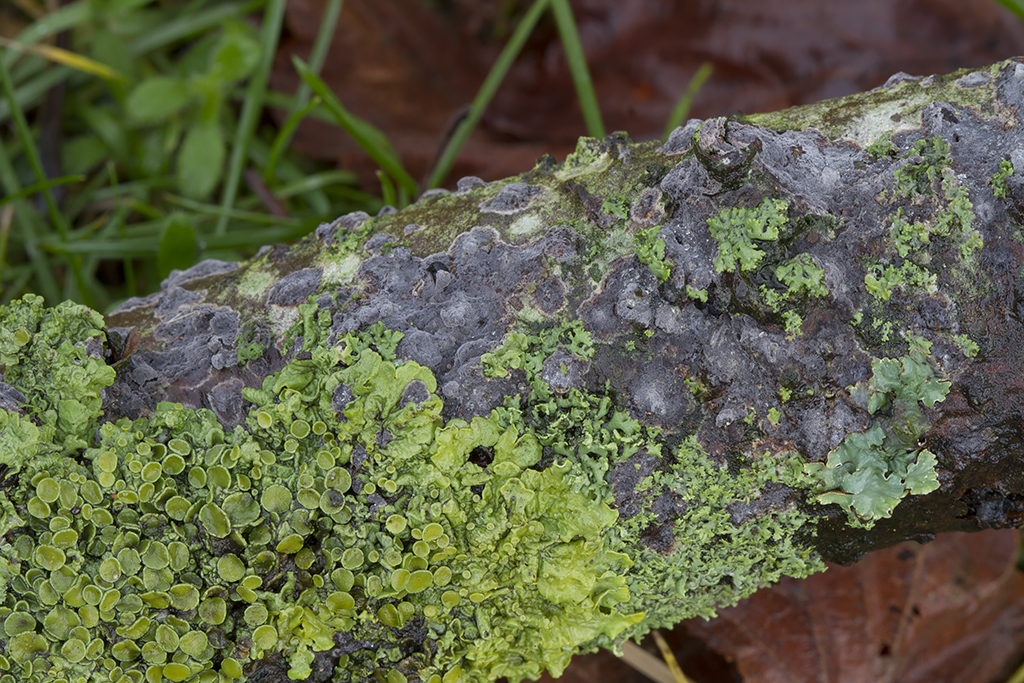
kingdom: Fungi
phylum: Basidiomycota
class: Agaricomycetes
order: Russulales
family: Peniophoraceae
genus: Peniophora
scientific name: Peniophora rufomarginata
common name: linde-voksskind
